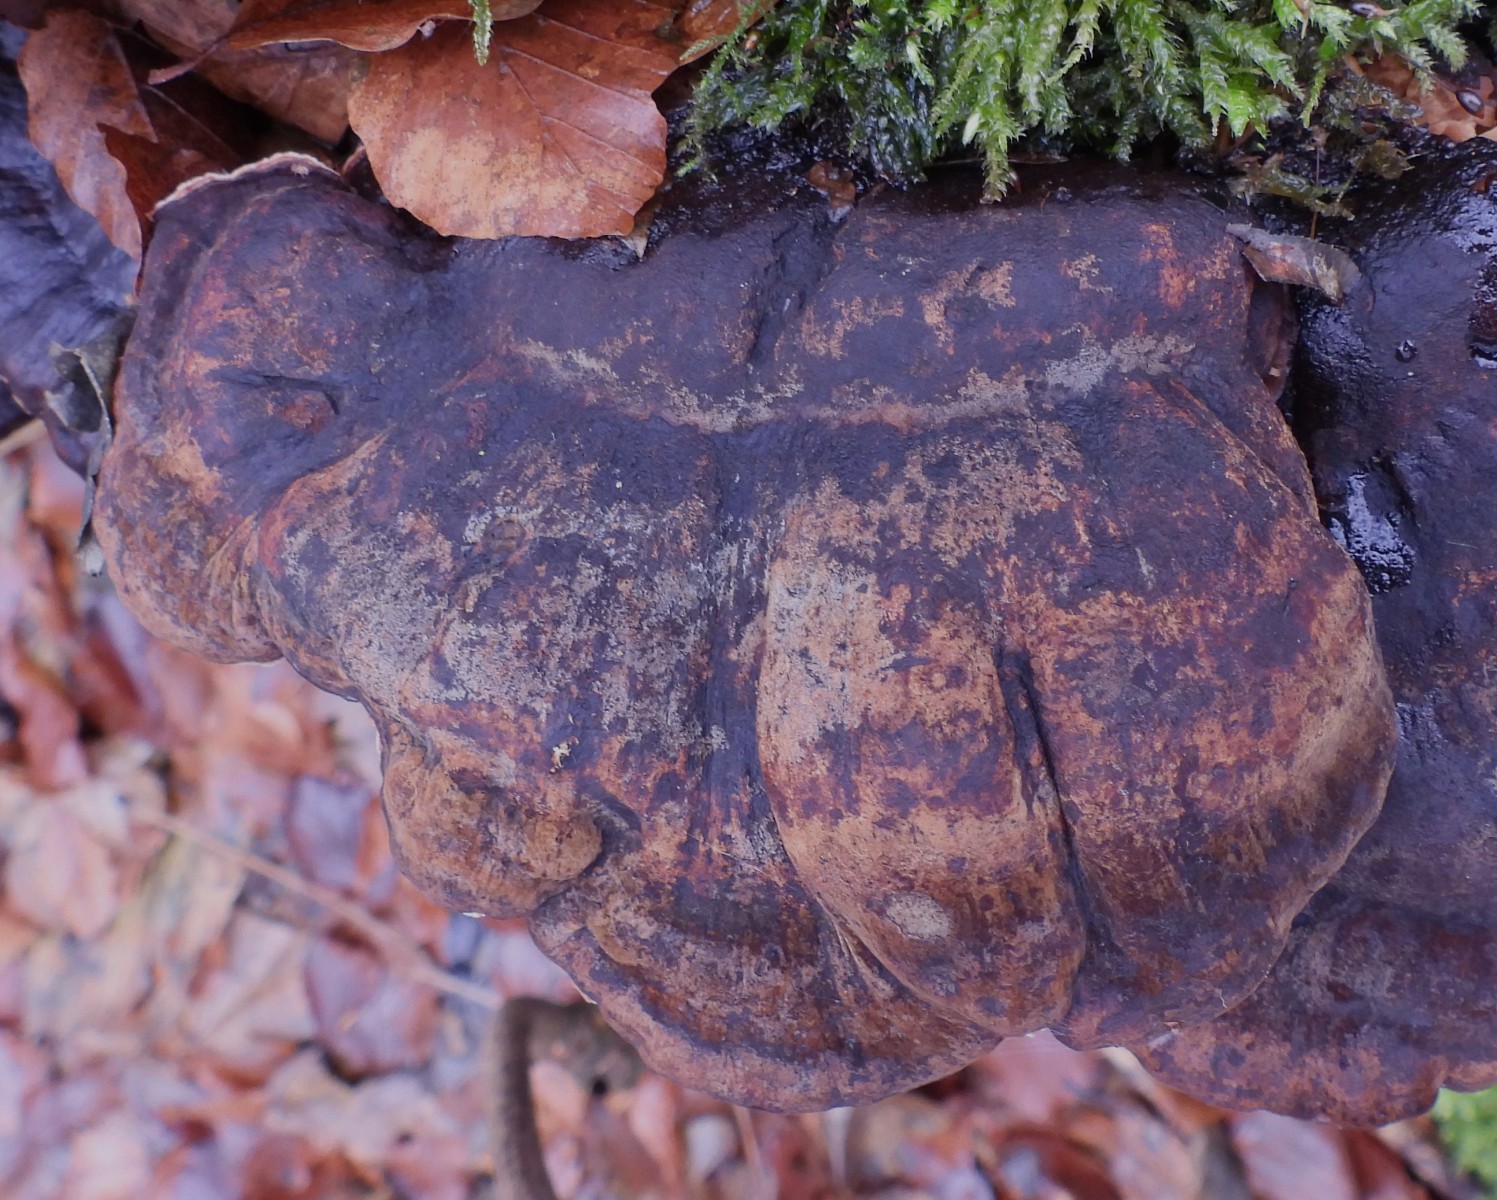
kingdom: Fungi
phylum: Basidiomycota
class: Agaricomycetes
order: Polyporales
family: Ischnodermataceae
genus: Ischnoderma
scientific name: Ischnoderma resinosum
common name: løv-tjæreporesvamp
